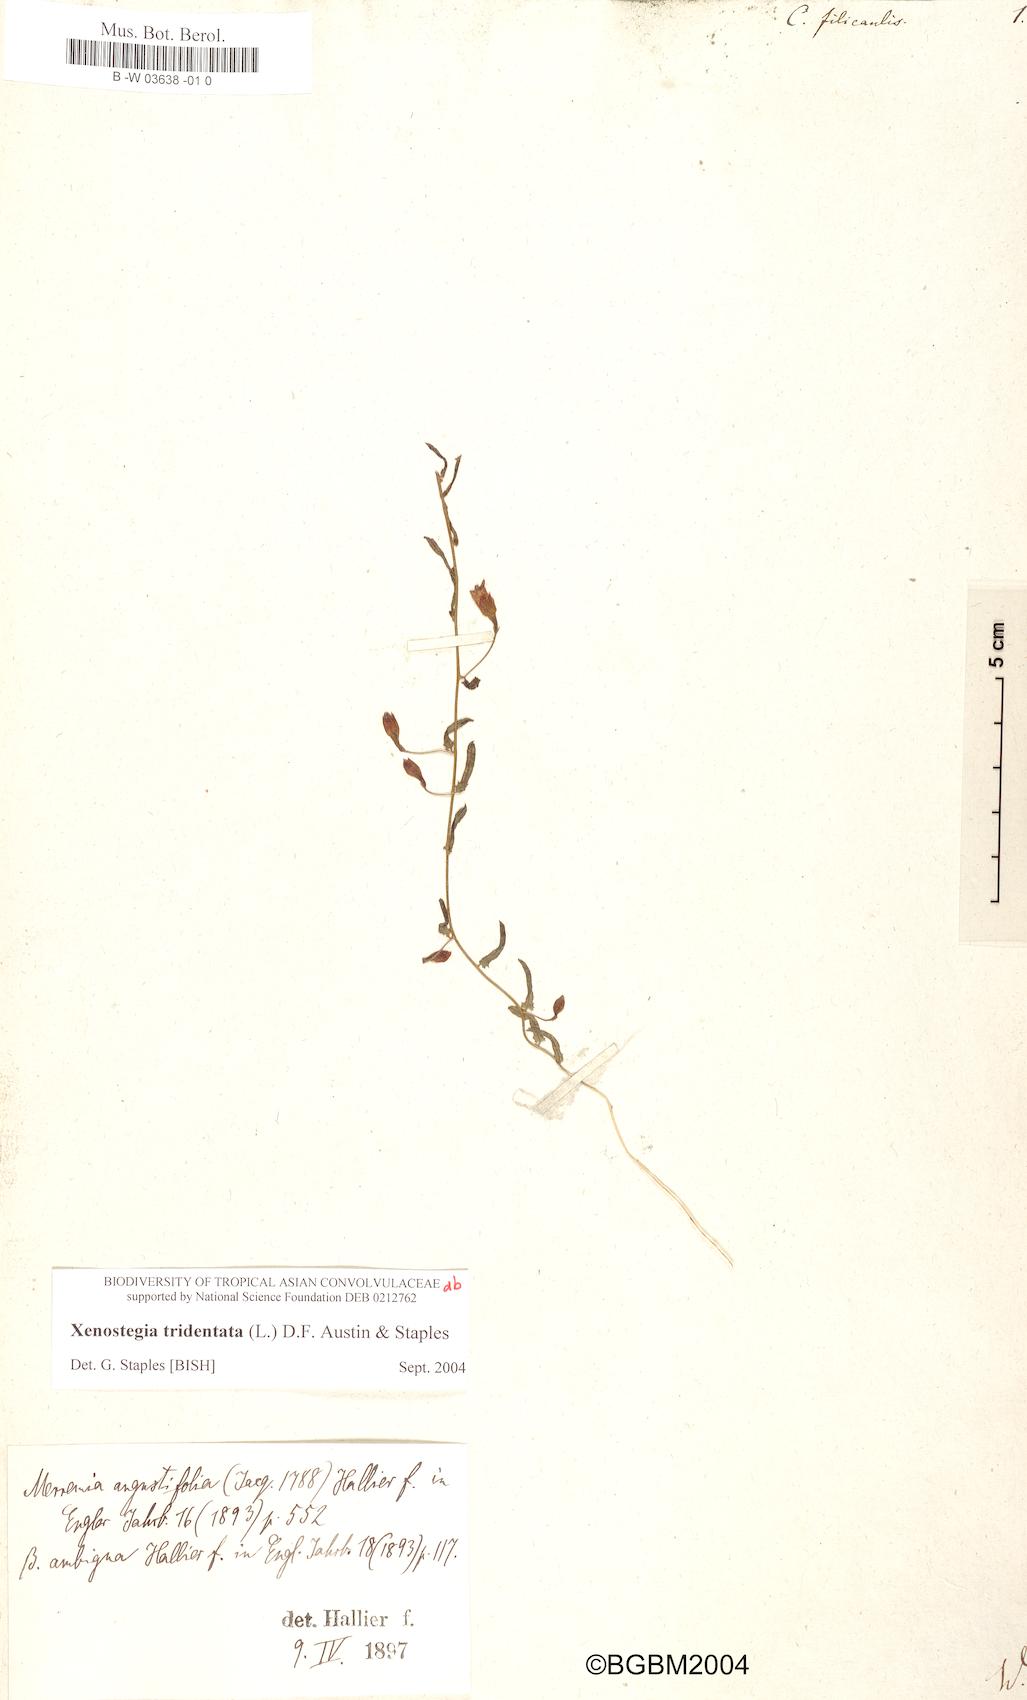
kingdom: Plantae
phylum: Tracheophyta
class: Magnoliopsida
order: Solanales
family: Convolvulaceae
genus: Xenostegia
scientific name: Xenostegia tridentata
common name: African morningvine
